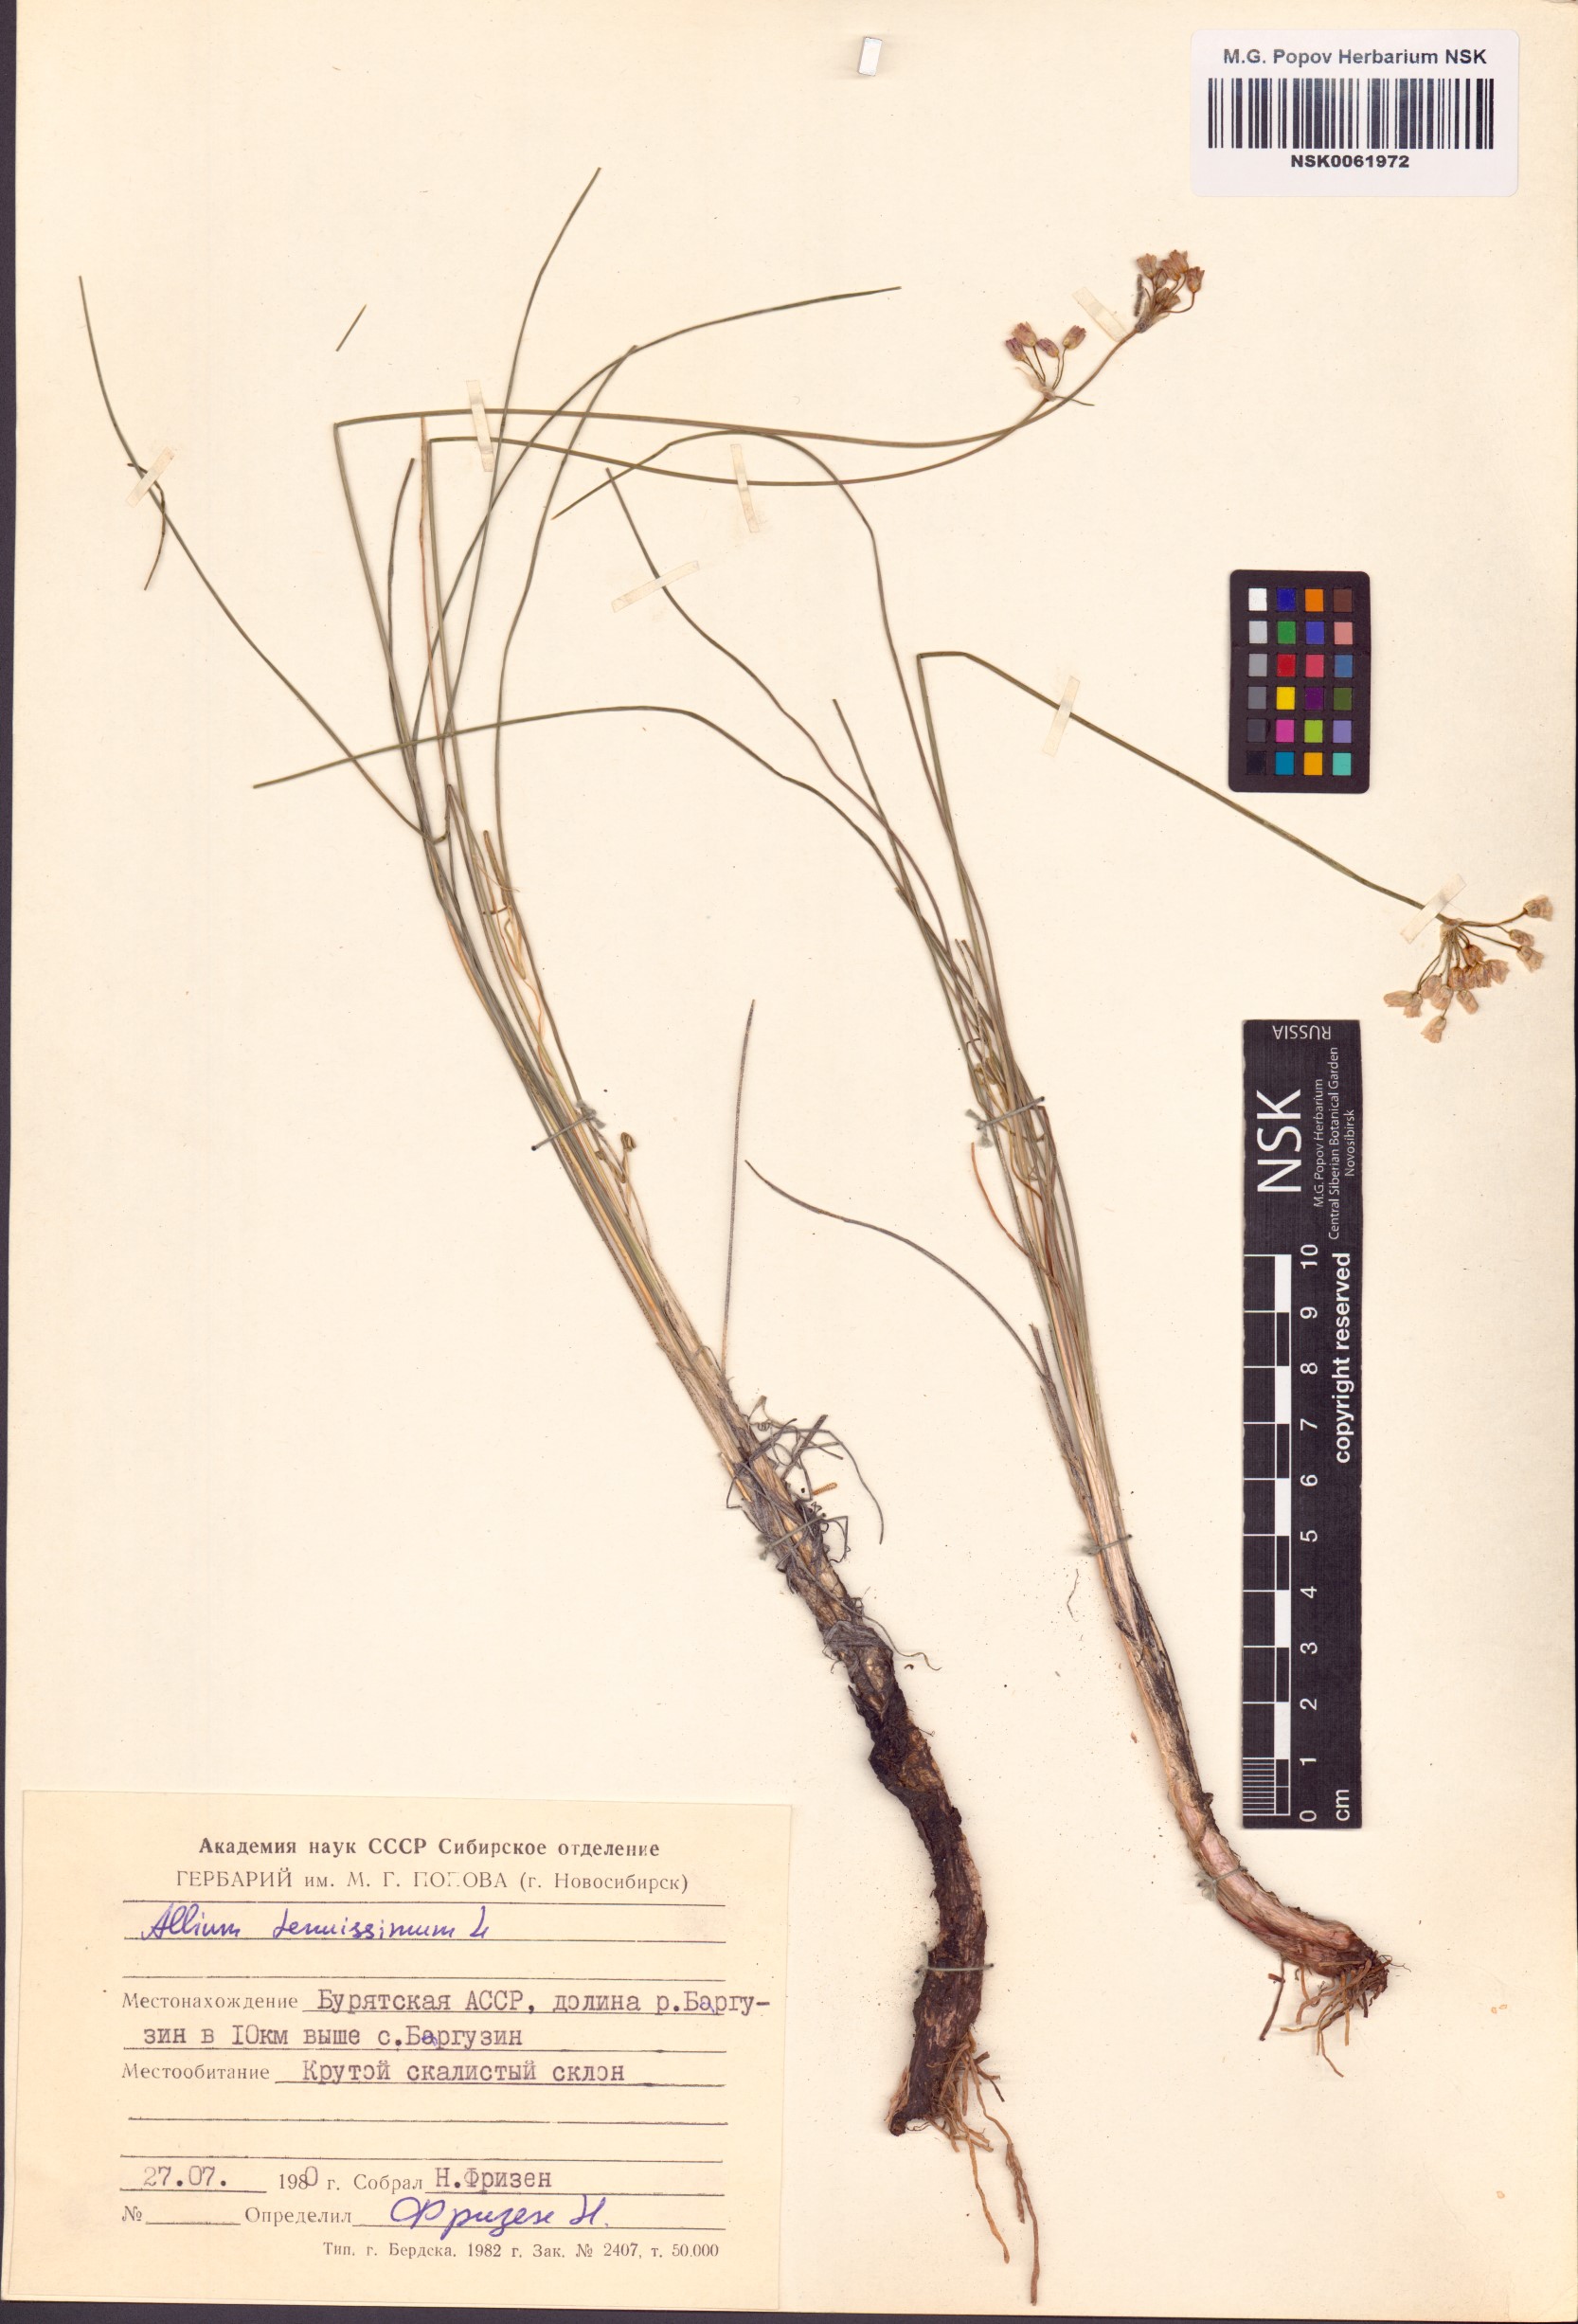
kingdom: Plantae
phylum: Tracheophyta
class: Liliopsida
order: Asparagales
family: Amaryllidaceae
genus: Allium
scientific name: Allium tenuissimum
